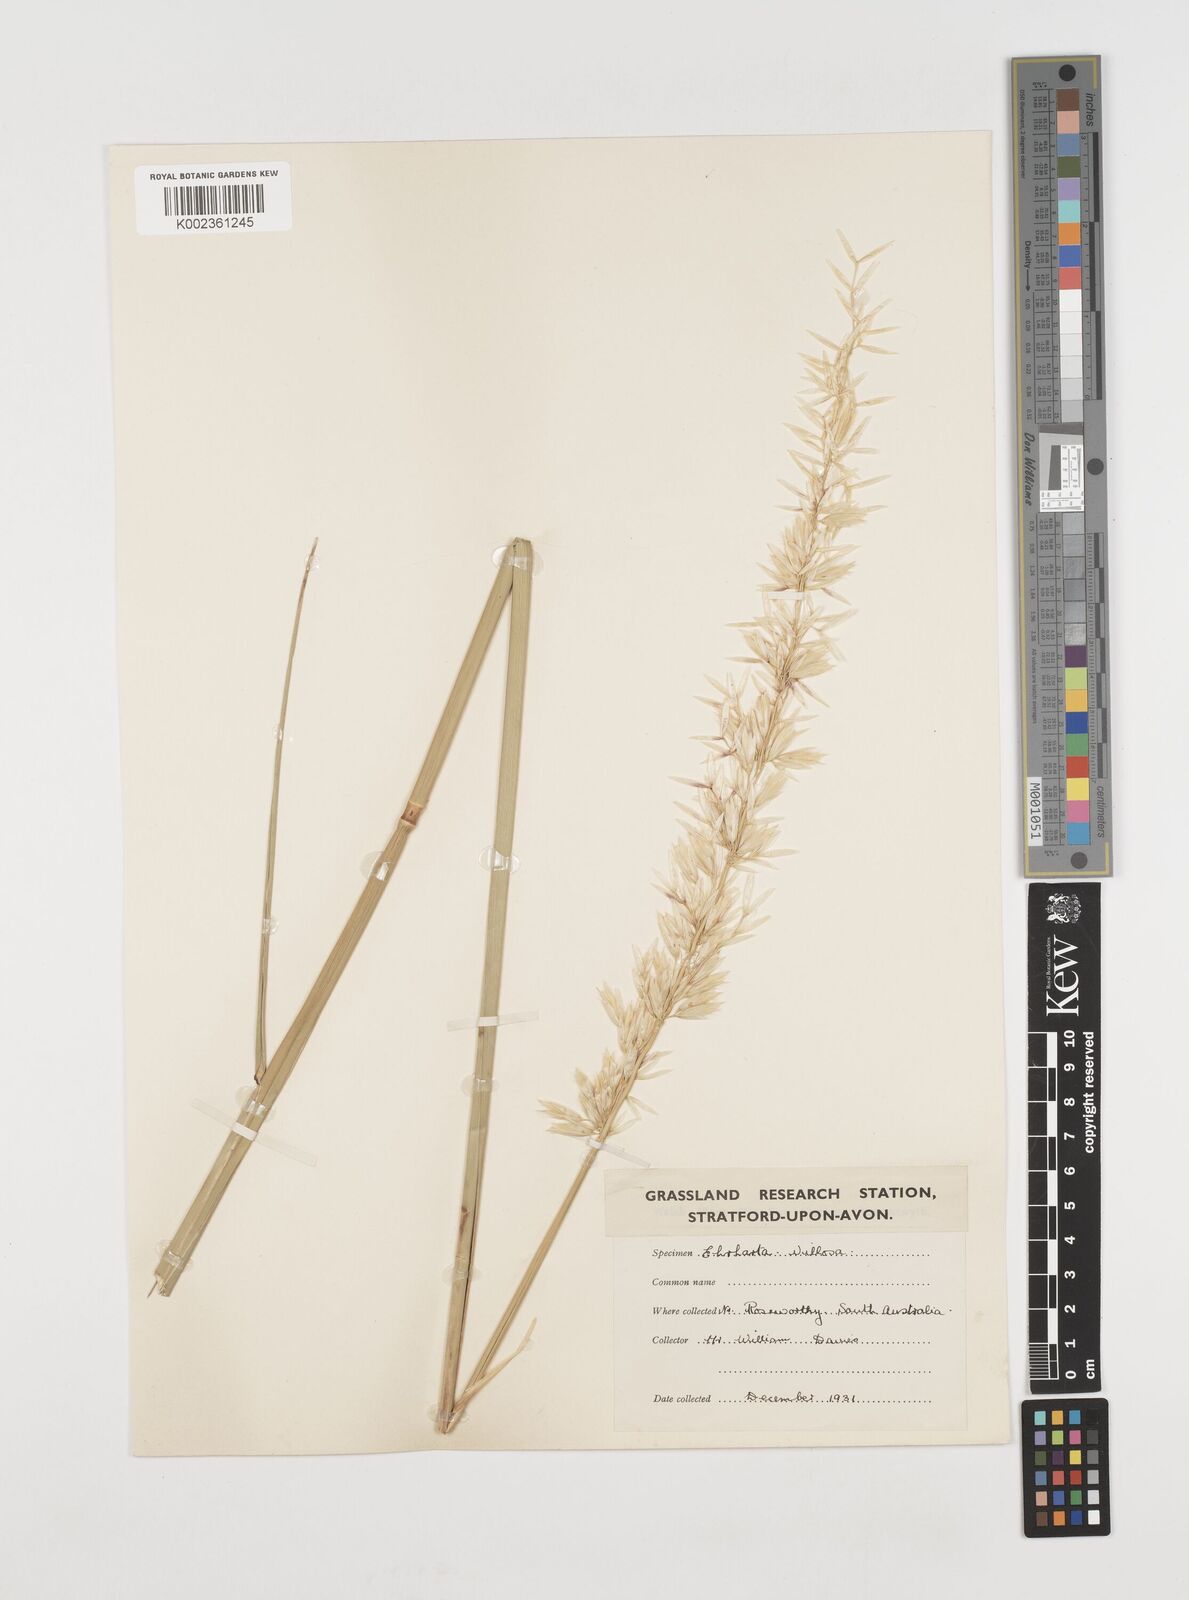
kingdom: Plantae
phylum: Tracheophyta
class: Liliopsida
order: Poales
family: Poaceae
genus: Ehrharta
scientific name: Ehrharta villosa
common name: Pyp grass
